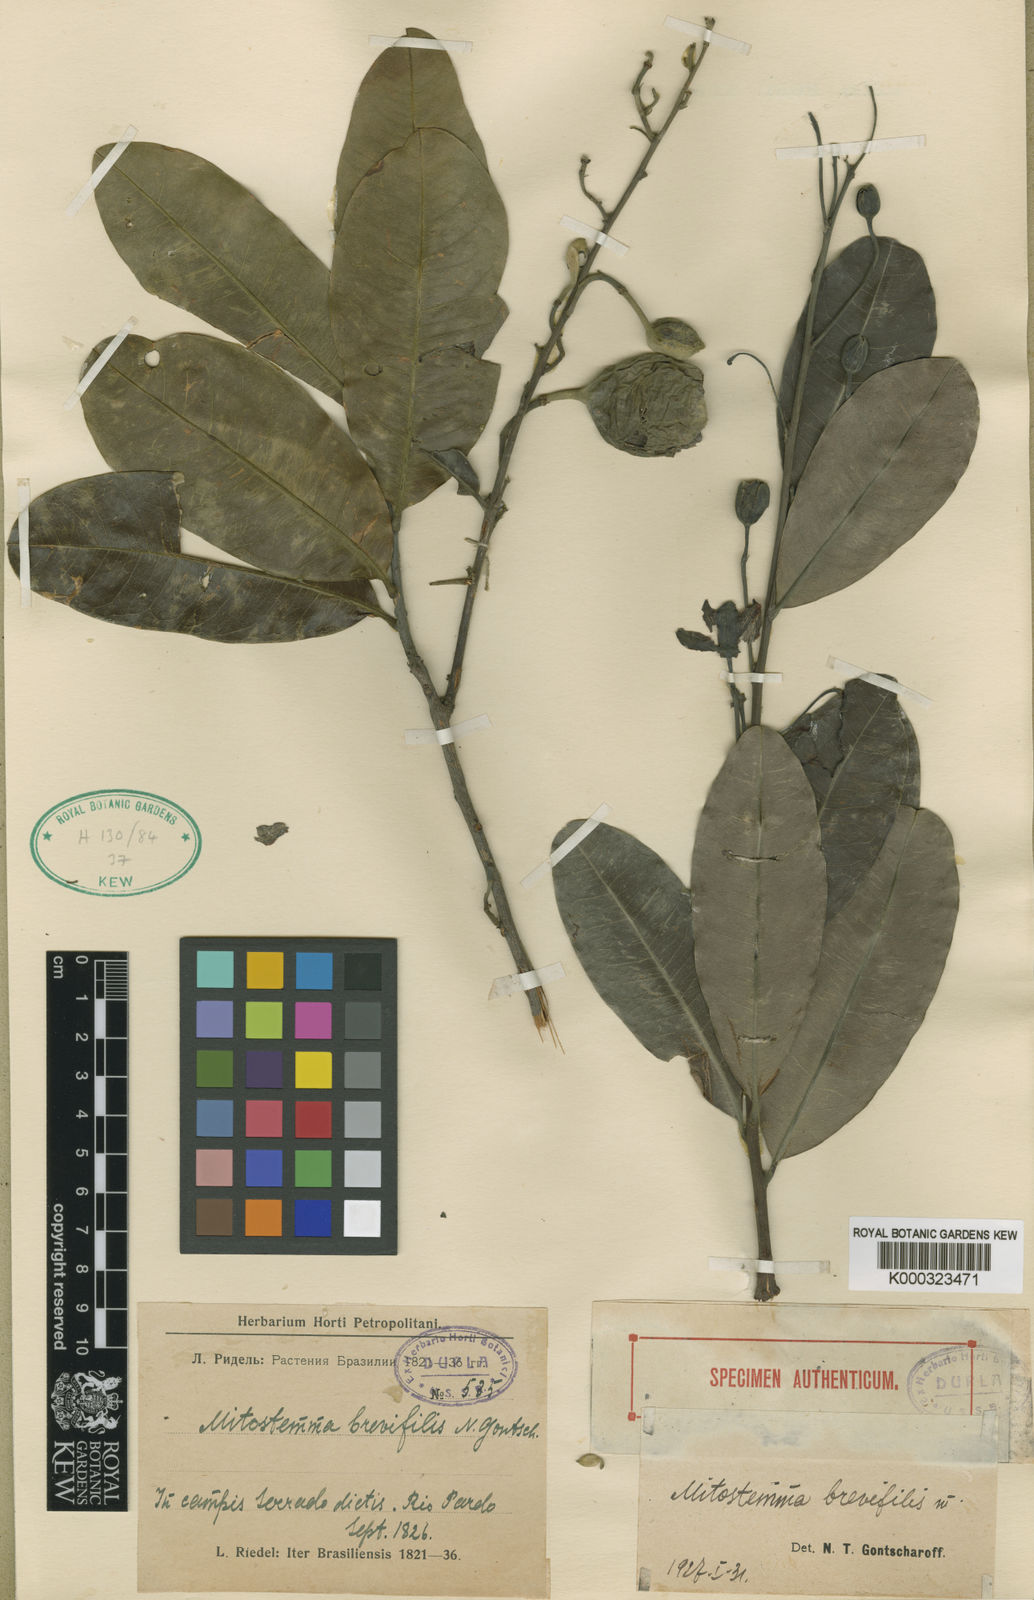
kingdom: Plantae
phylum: Tracheophyta
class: Magnoliopsida
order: Malpighiales
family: Passifloraceae
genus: Mitostemma
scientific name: Mitostemma brevifilis
